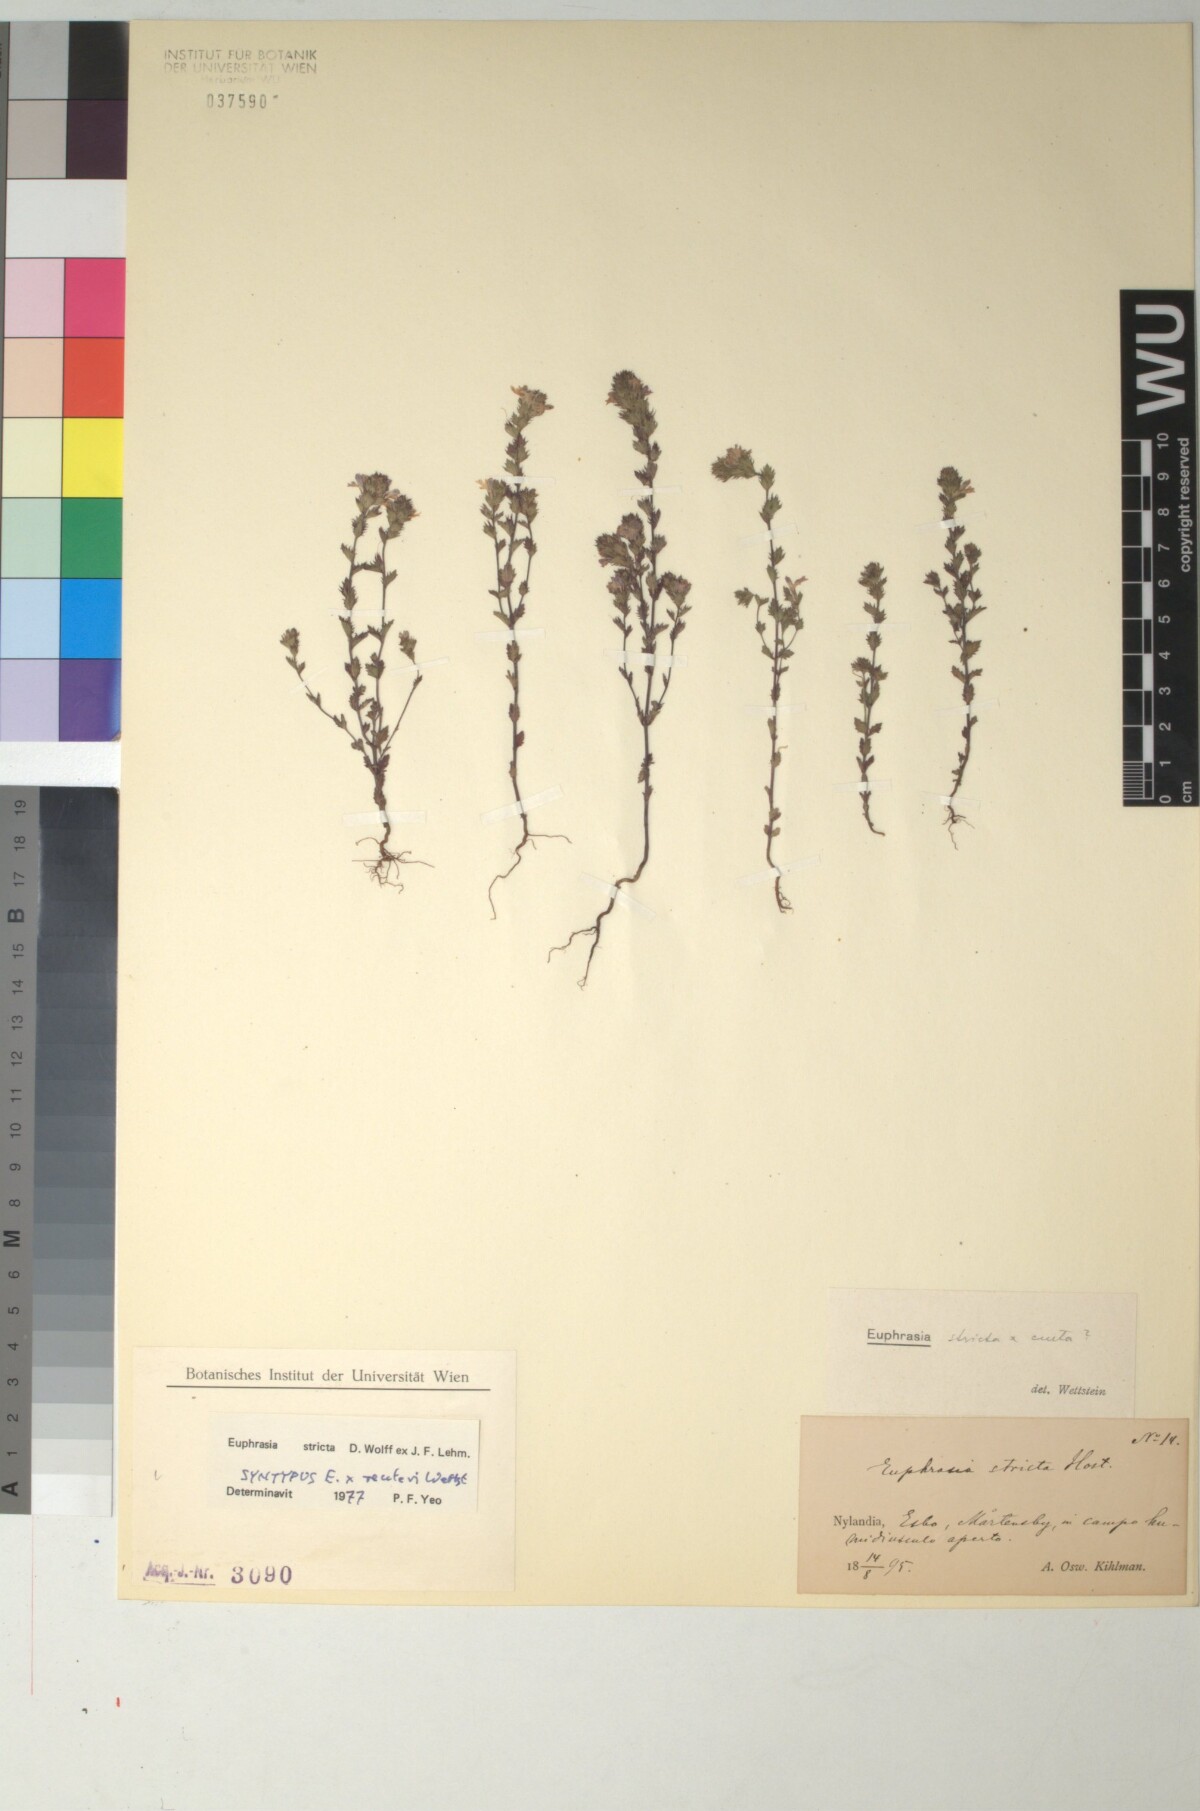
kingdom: Plantae
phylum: Tracheophyta
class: Magnoliopsida
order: Lamiales
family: Orobanchaceae
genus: Euphrasia
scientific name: Euphrasia reuteri
